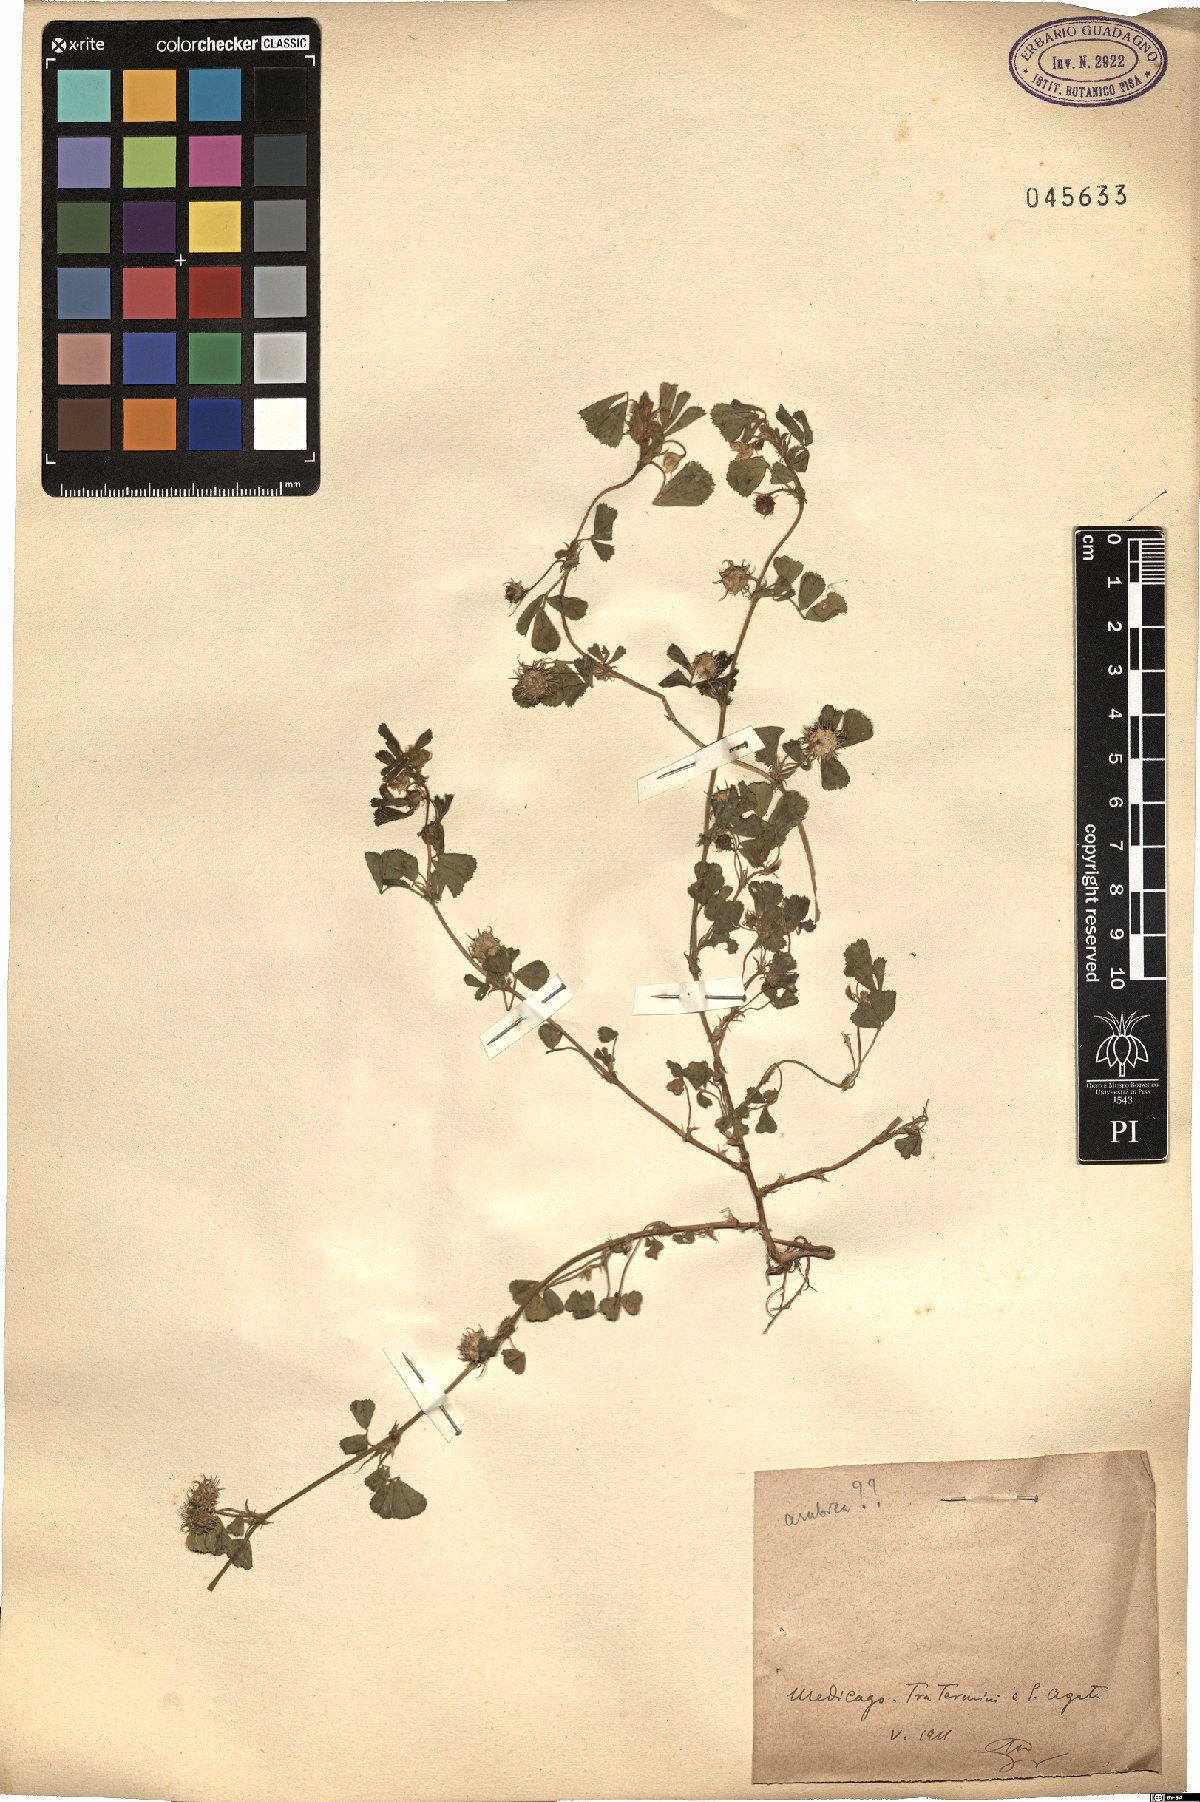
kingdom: Plantae
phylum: Tracheophyta
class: Magnoliopsida
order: Fabales
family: Fabaceae
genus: Medicago
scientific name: Medicago
